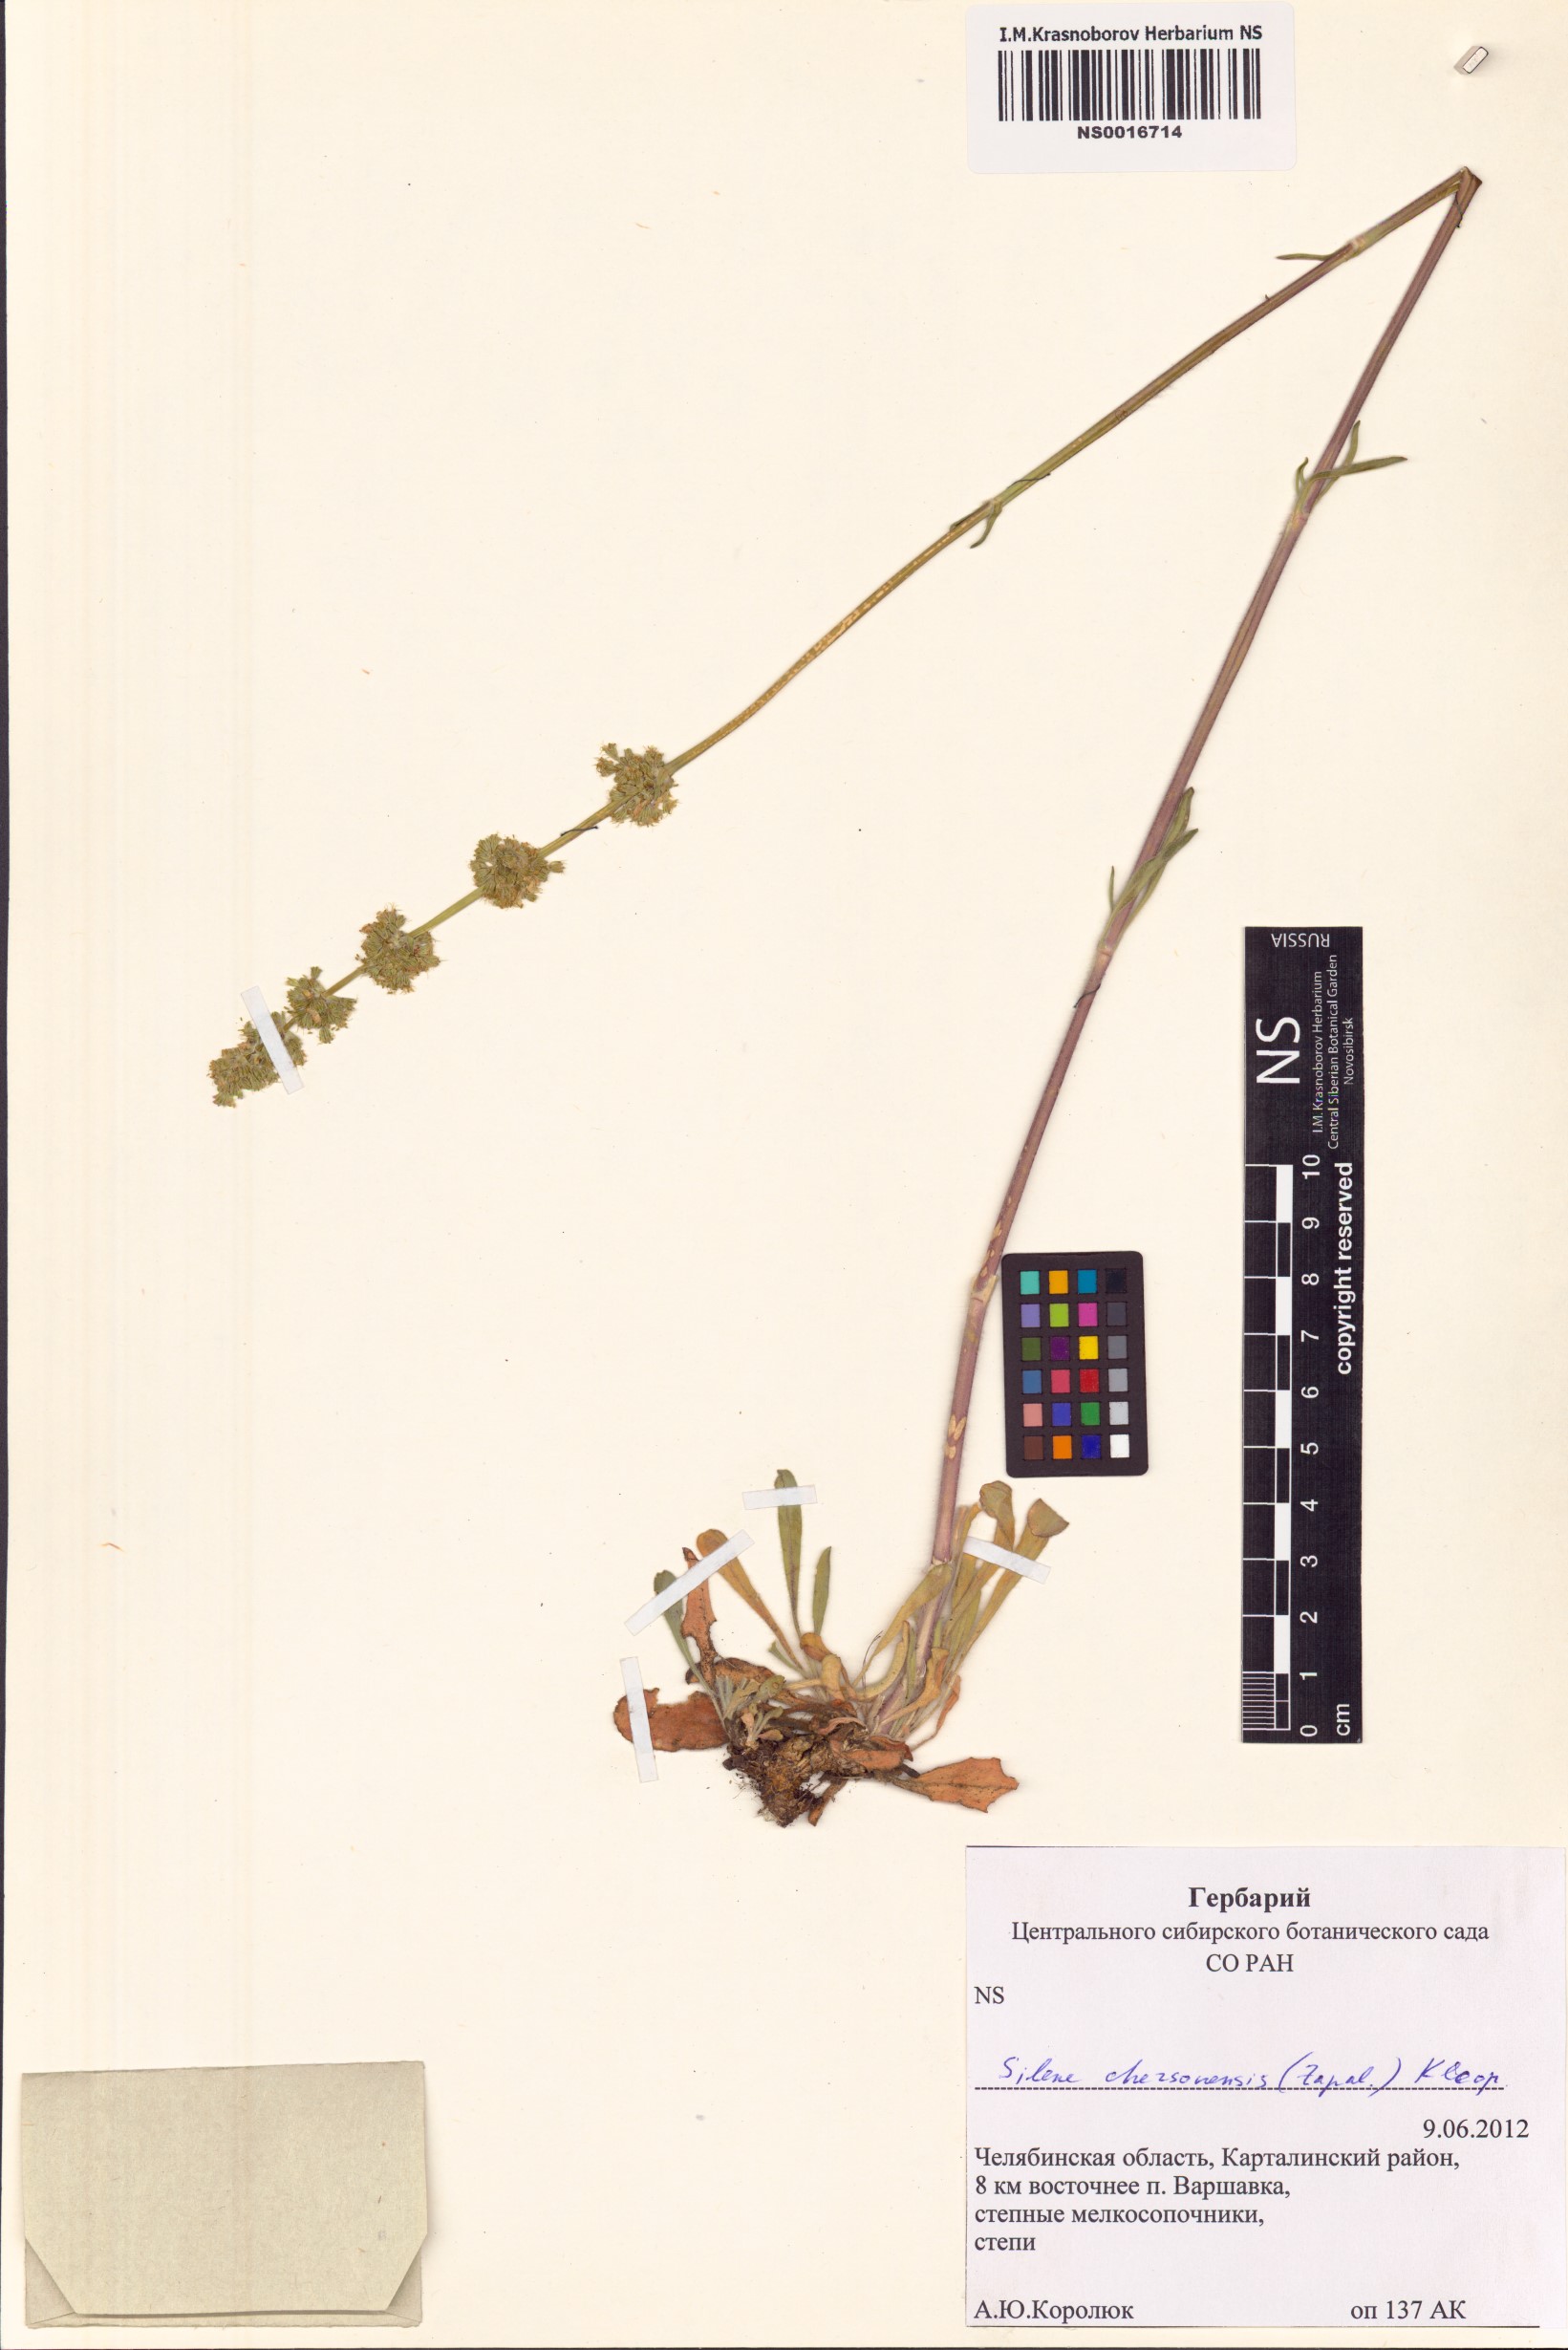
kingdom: Plantae
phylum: Tracheophyta
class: Magnoliopsida
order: Caryophyllales
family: Caryophyllaceae
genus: Silene
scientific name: Silene chersonensis
